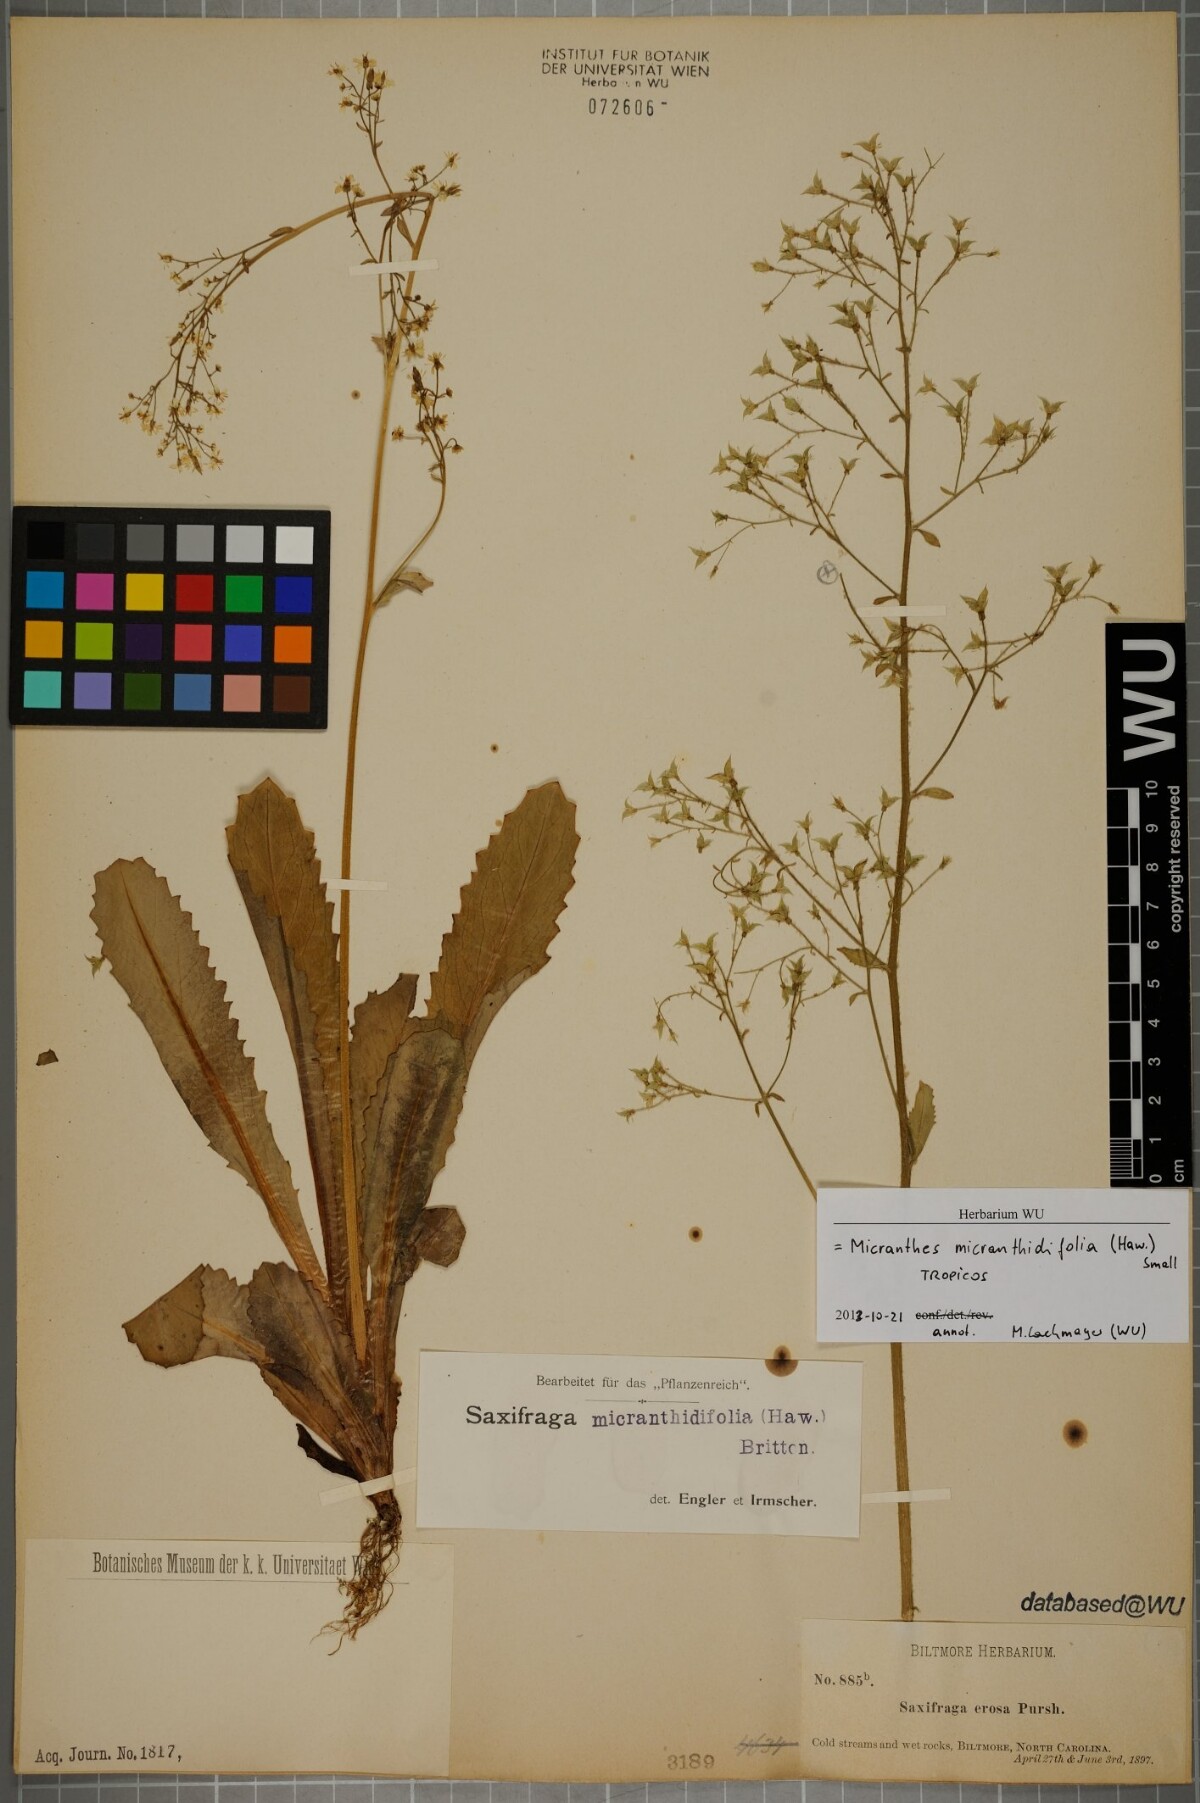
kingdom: Plantae
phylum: Tracheophyta
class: Magnoliopsida
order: Saxifragales
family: Saxifragaceae
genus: Micranthes
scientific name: Micranthes micranthidifolia
